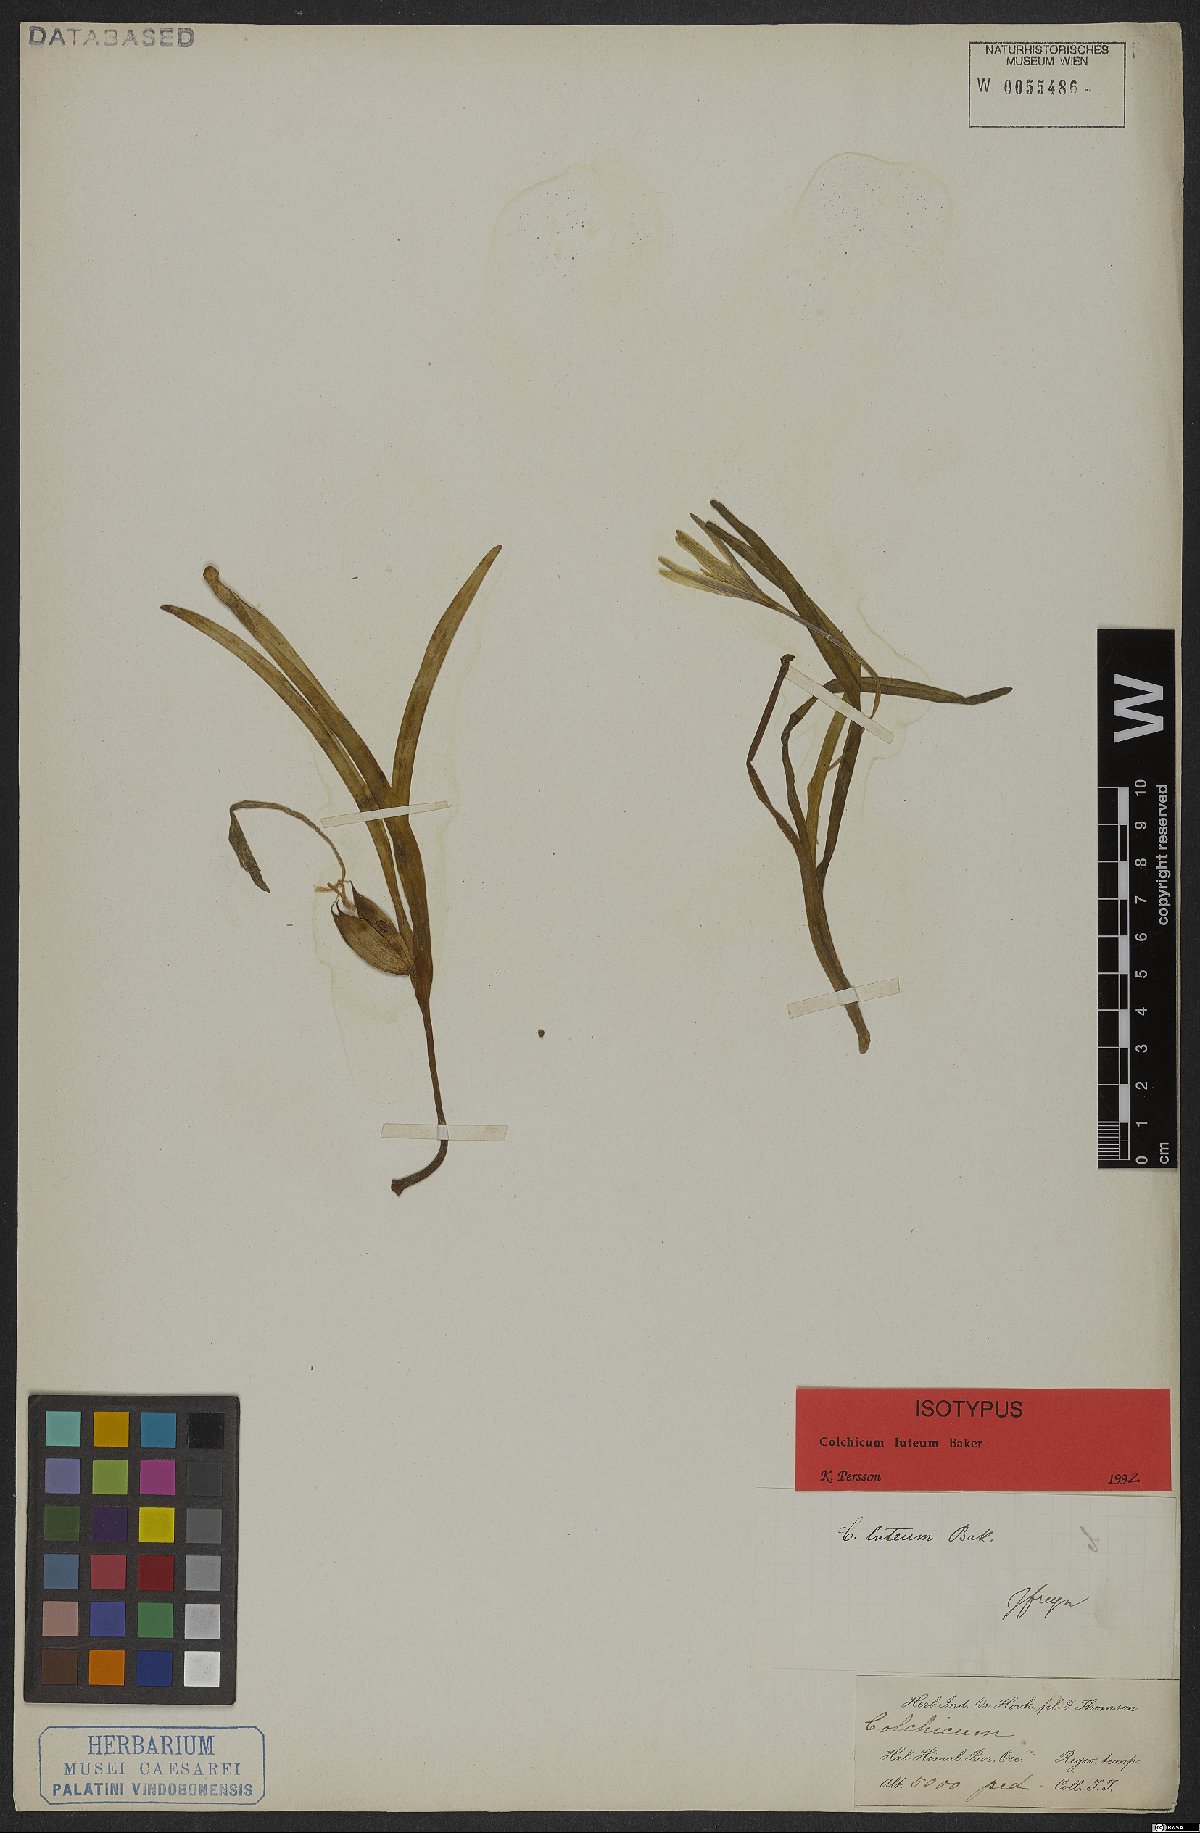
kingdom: Plantae
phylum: Tracheophyta
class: Liliopsida
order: Liliales
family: Colchicaceae
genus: Colchicum
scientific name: Colchicum luteum
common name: Indian colchicum
